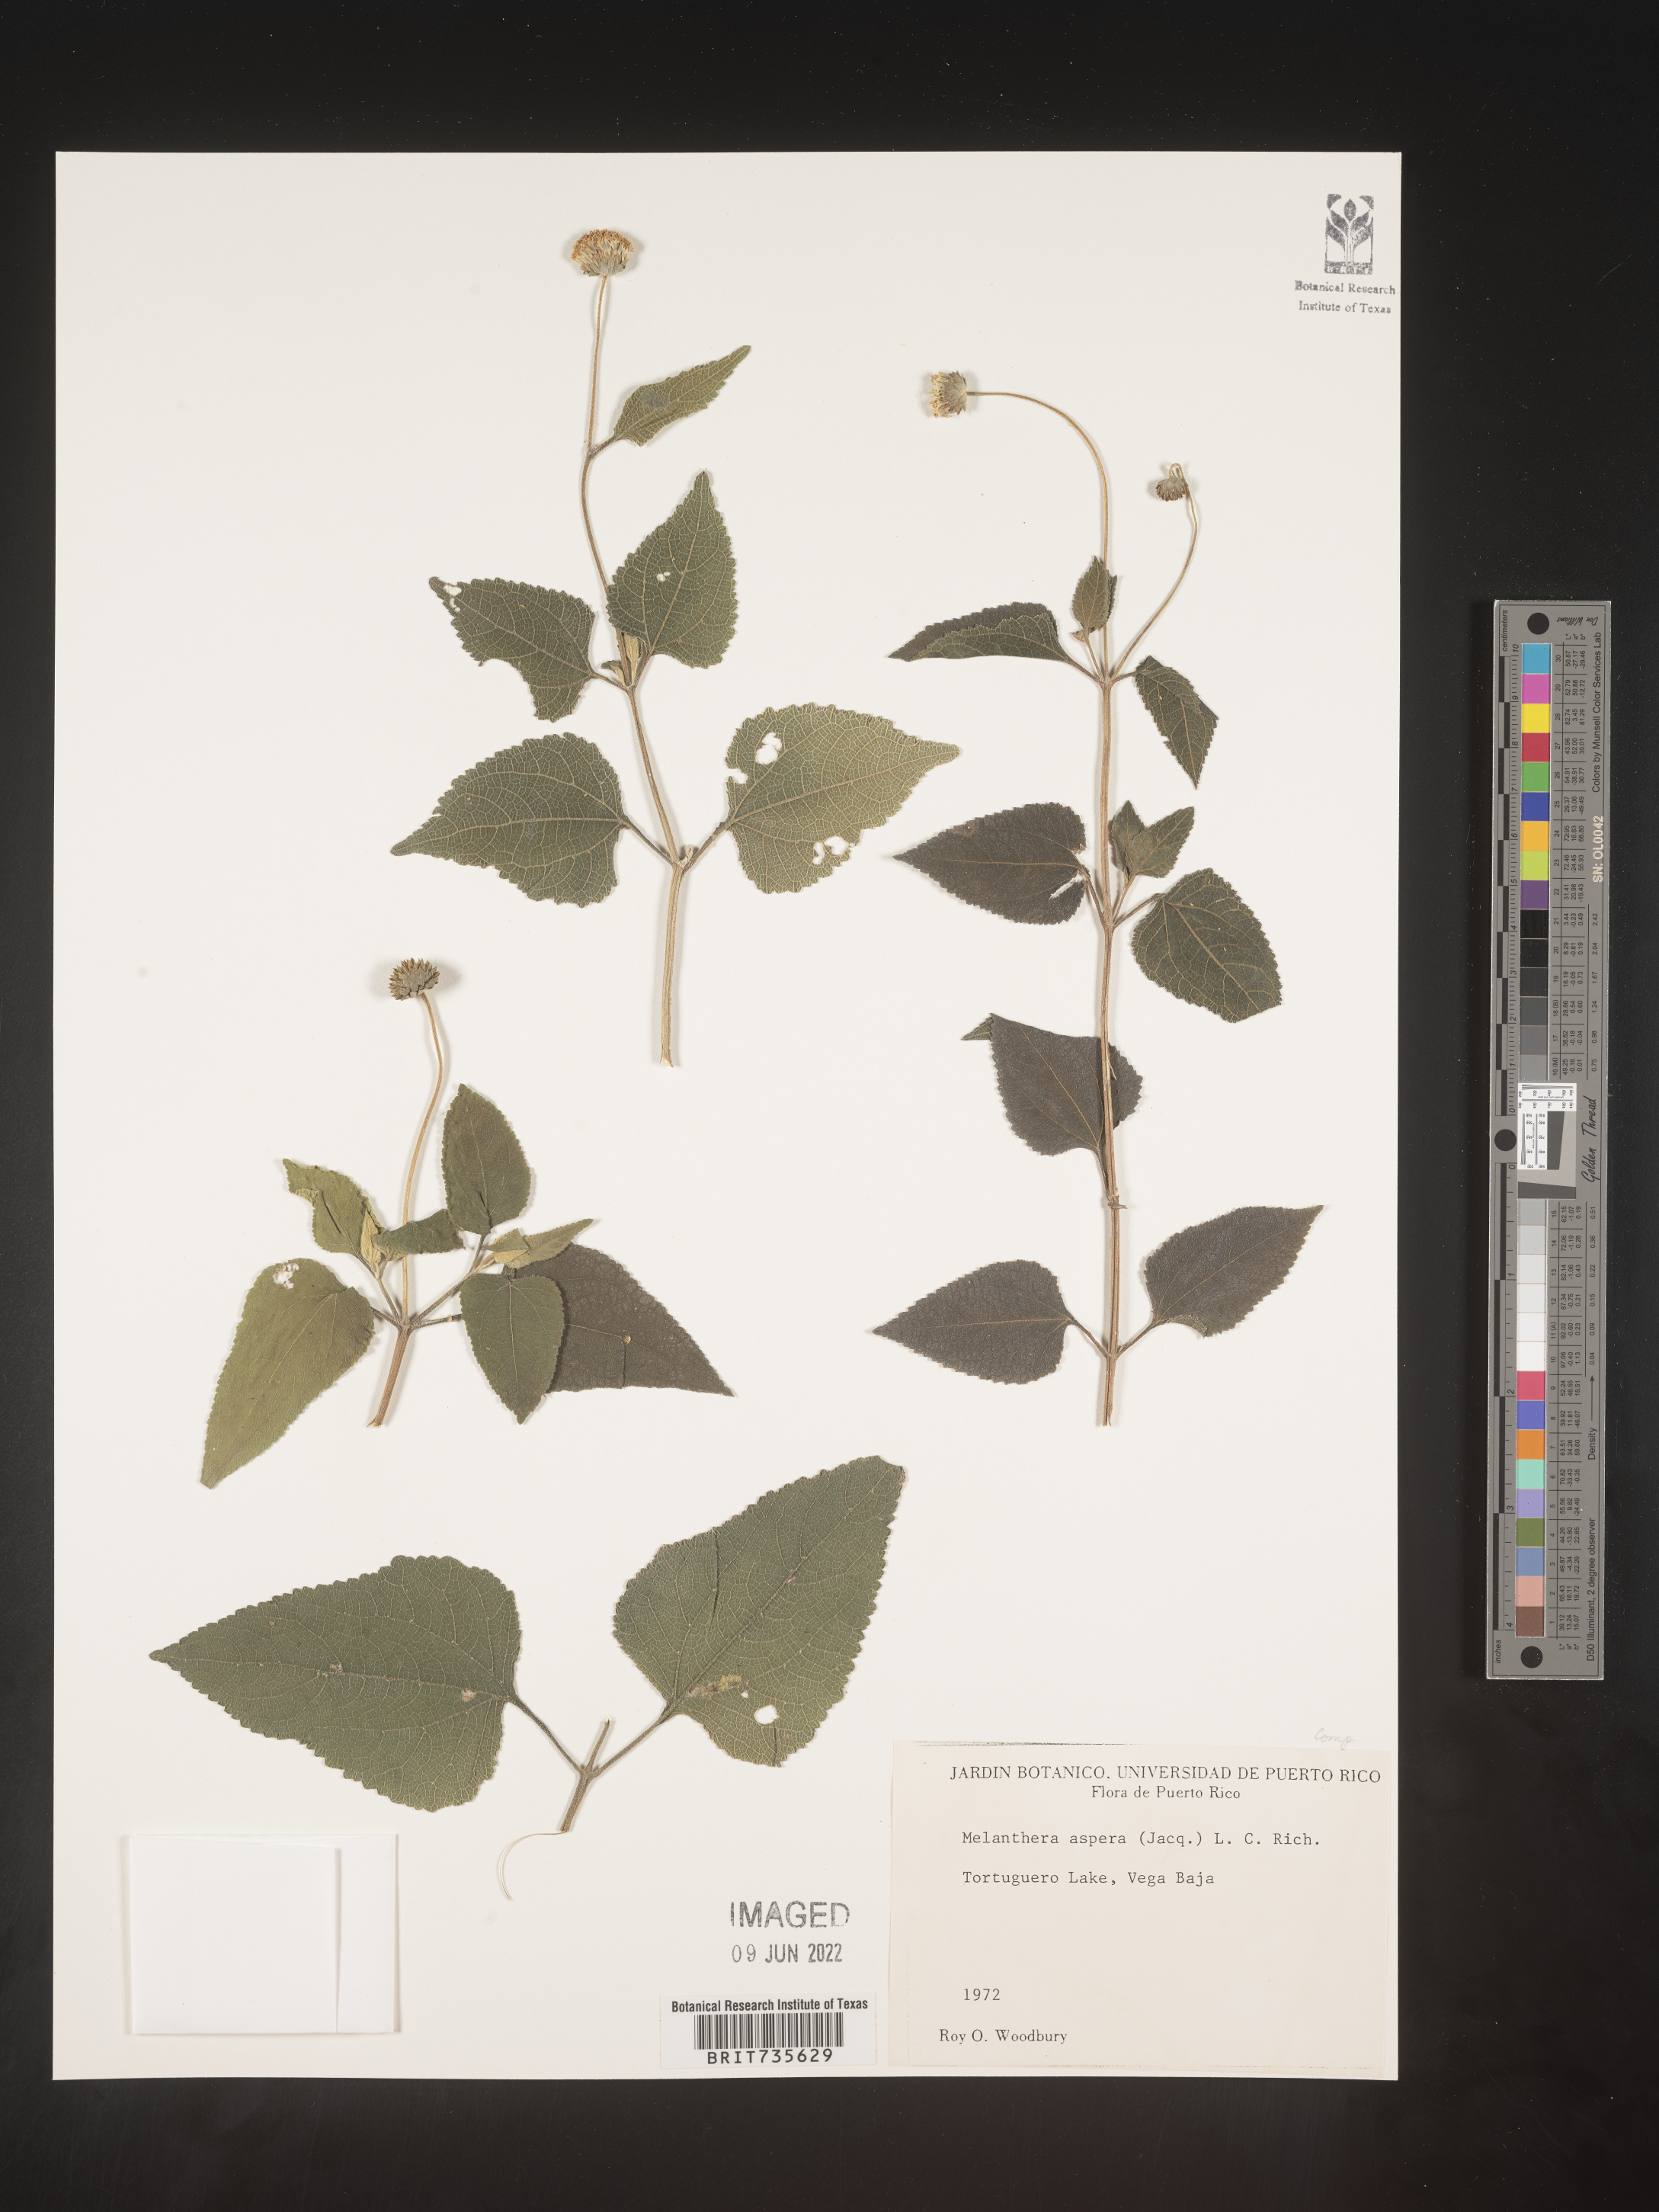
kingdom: Plantae
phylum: Tracheophyta
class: Magnoliopsida
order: Asterales
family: Asteraceae
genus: Melanthera
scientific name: Melanthera
